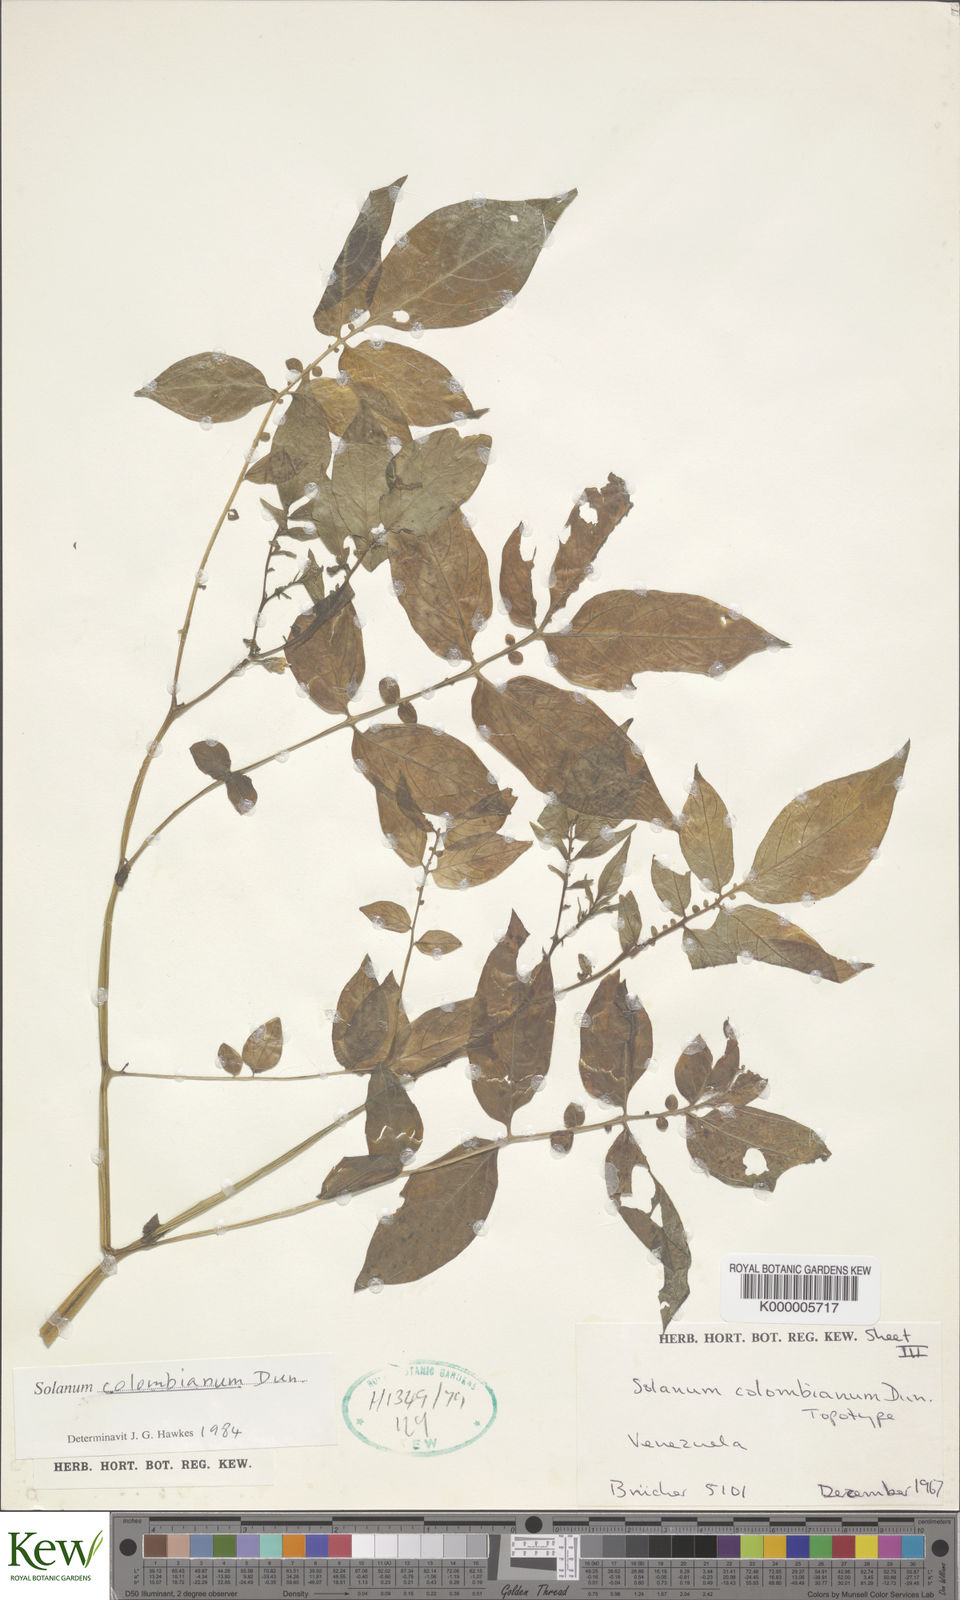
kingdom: Plantae
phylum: Tracheophyta
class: Magnoliopsida
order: Solanales
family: Solanaceae
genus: Solanum
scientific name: Solanum colombianum
